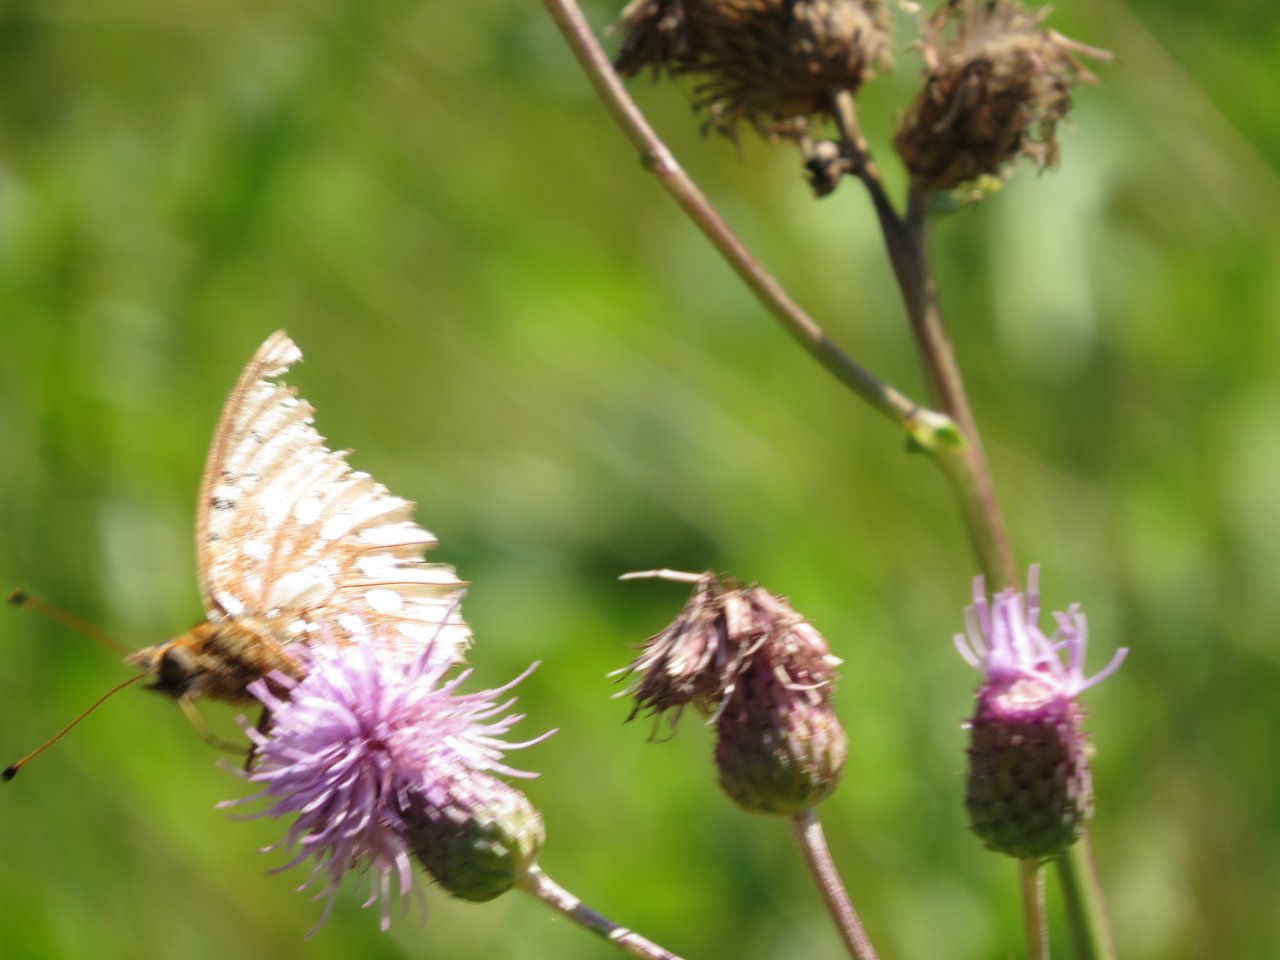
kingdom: Animalia
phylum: Arthropoda
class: Insecta
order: Lepidoptera
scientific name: Lepidoptera
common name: Butterflies
